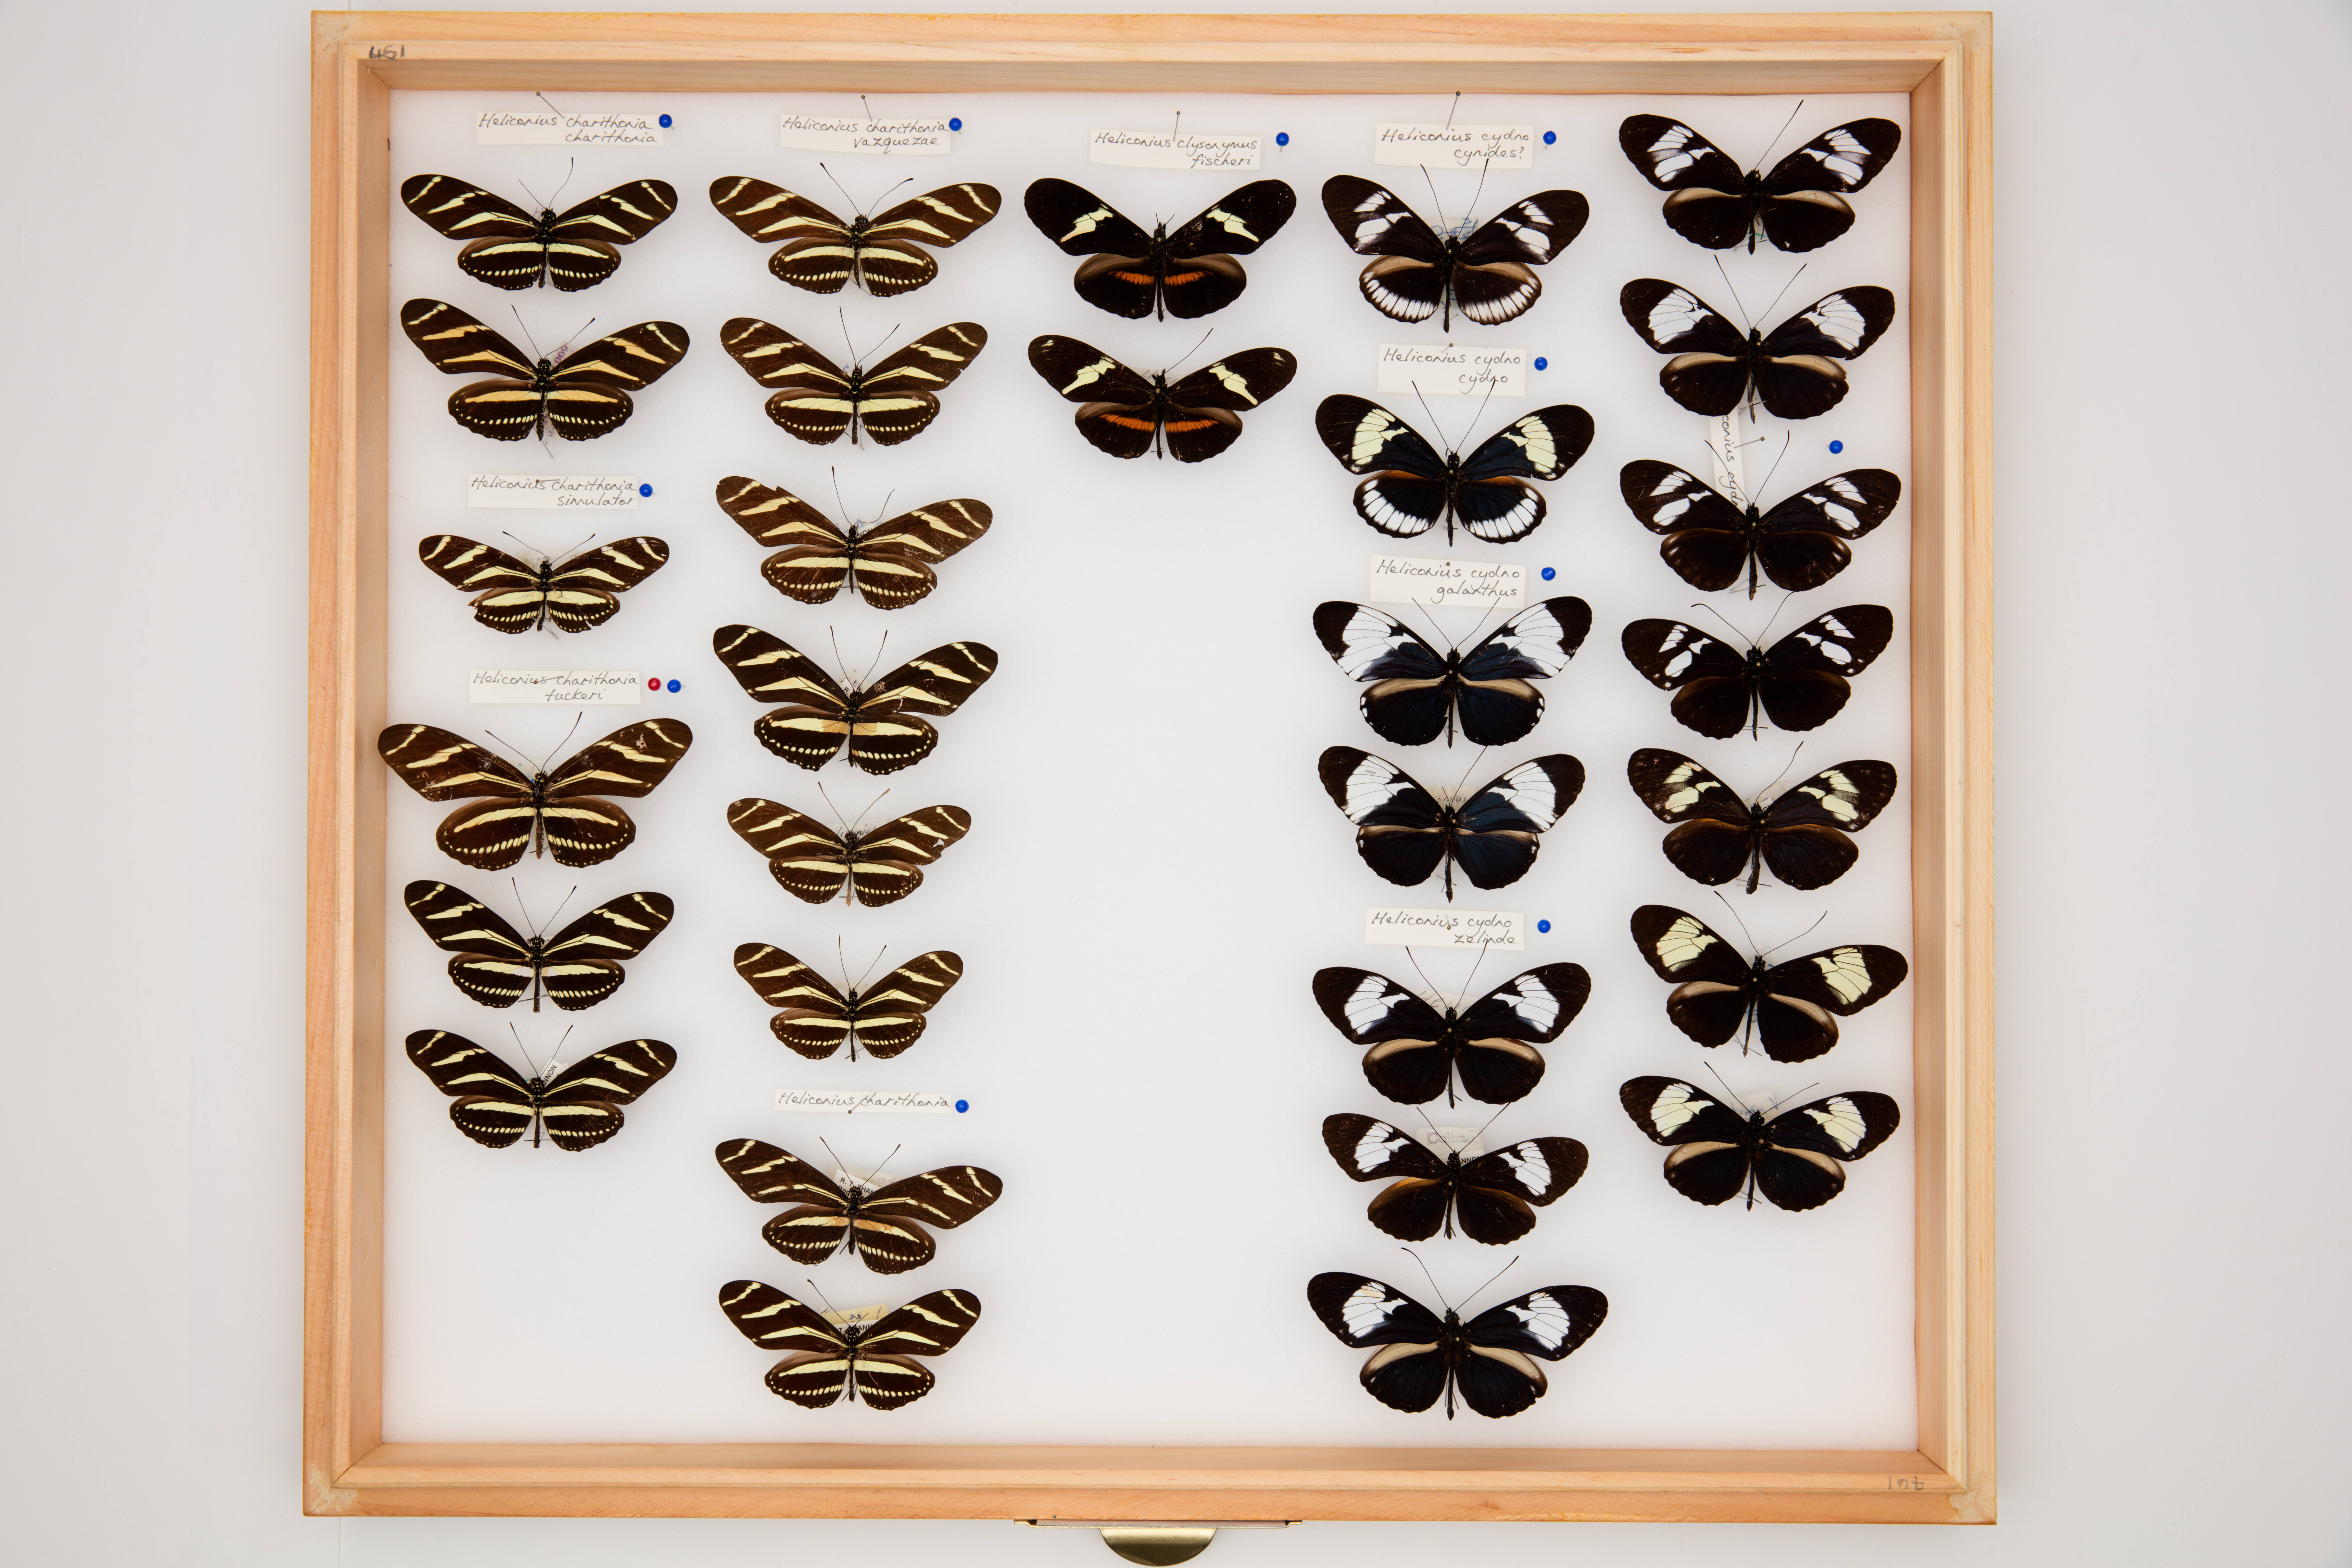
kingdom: Animalia
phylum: Arthropoda
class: Insecta
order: Lepidoptera
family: Nymphalidae
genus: Heliconius
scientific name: Heliconius charithonia
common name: Zebra long wing
